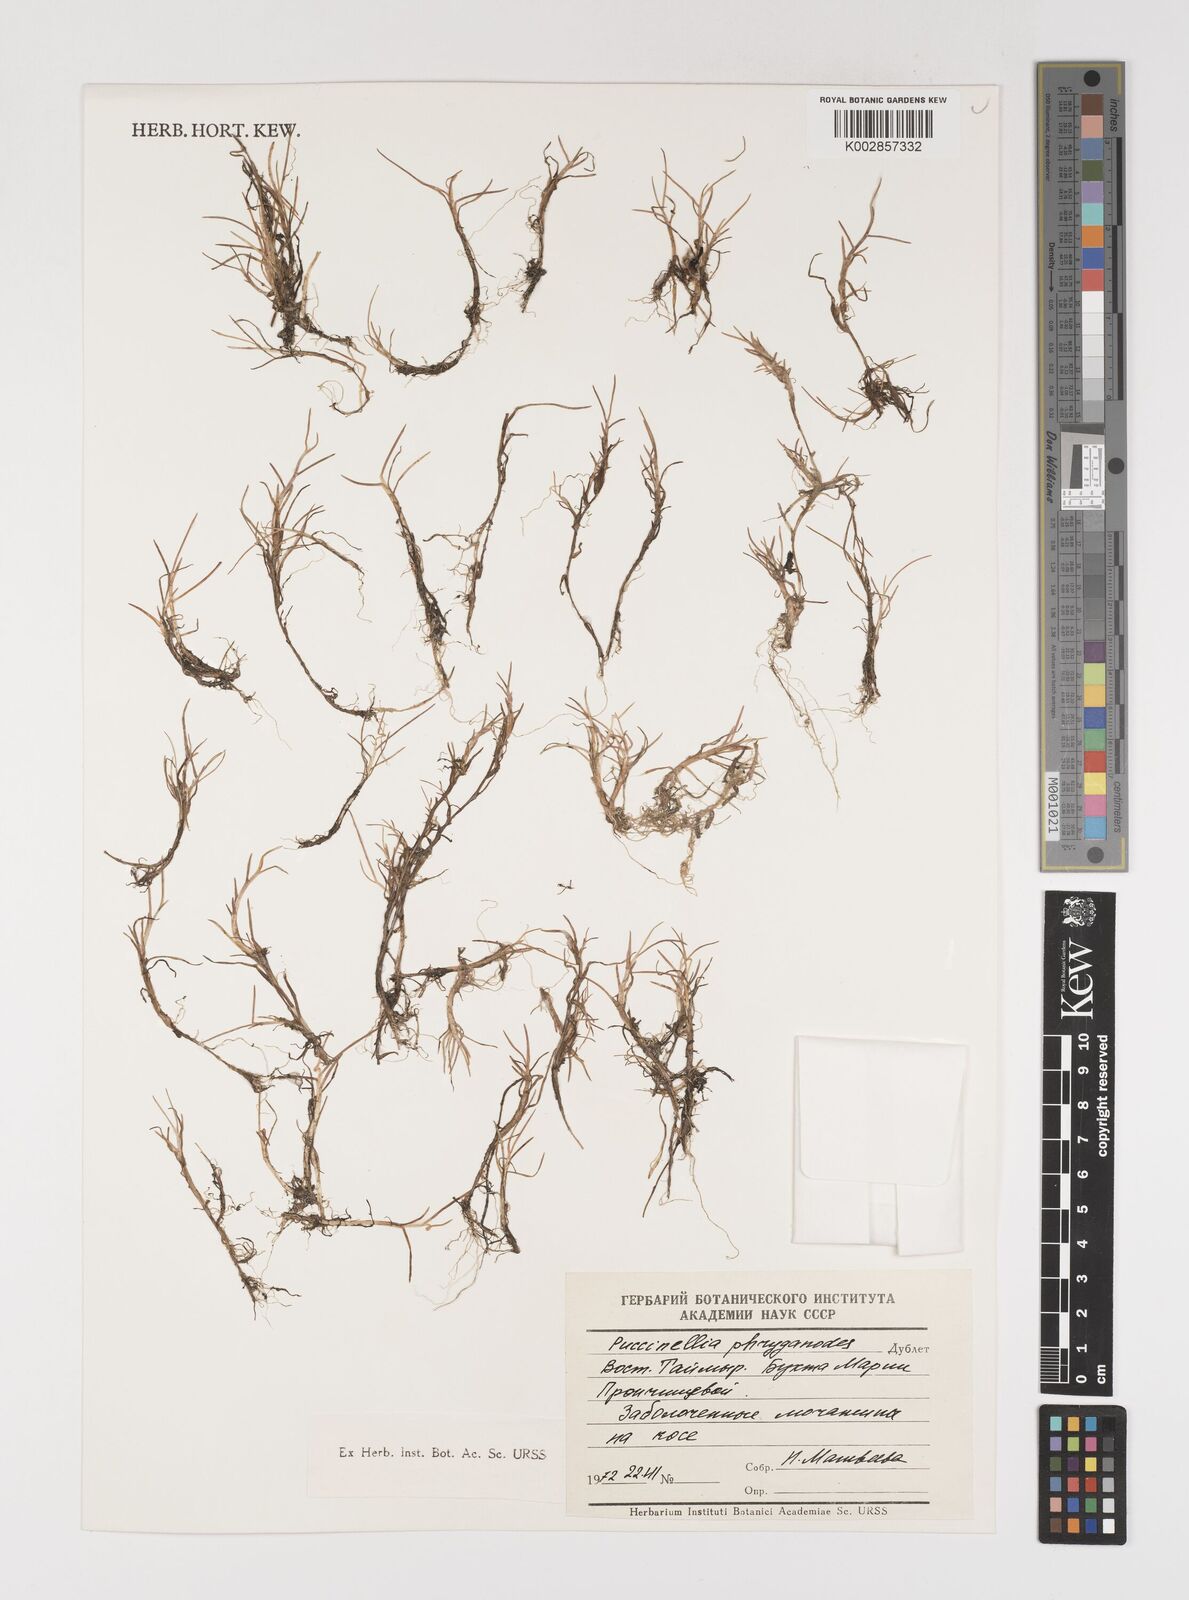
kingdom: Plantae
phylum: Tracheophyta
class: Liliopsida
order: Poales
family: Poaceae
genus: Puccinellia
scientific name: Puccinellia phryganodes
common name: Creeping alkaligrass
